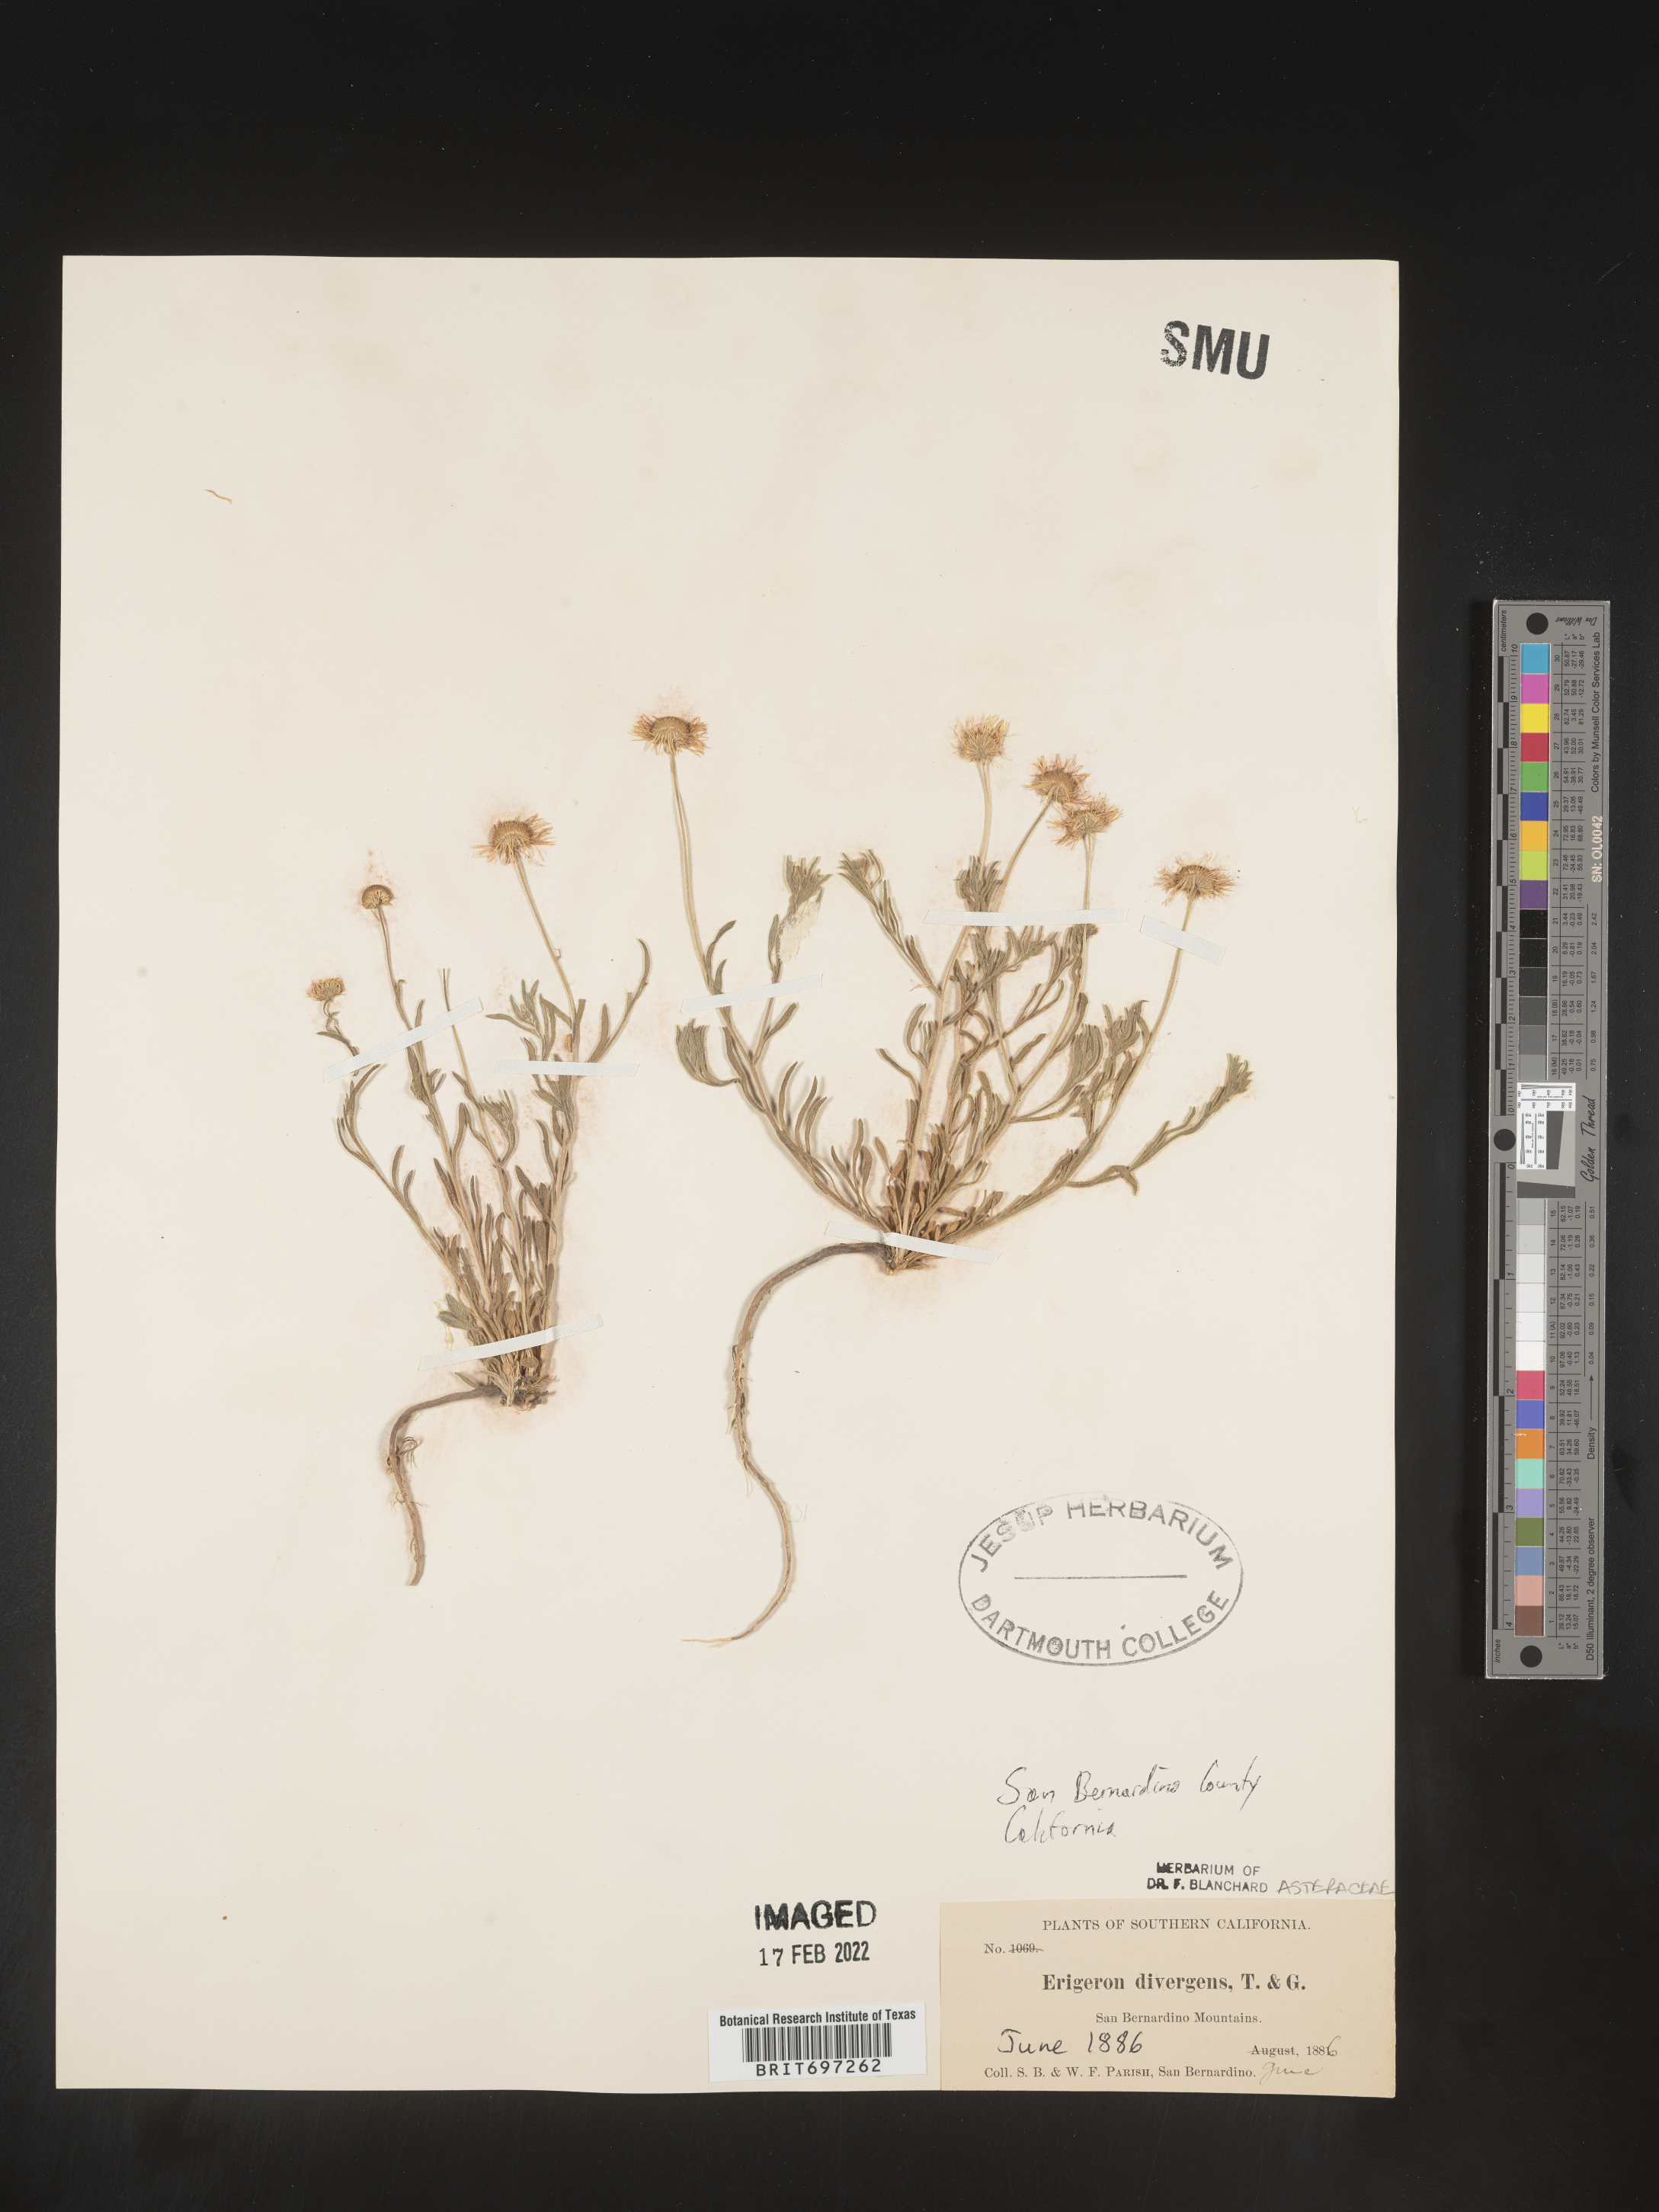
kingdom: Plantae
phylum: Tracheophyta
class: Magnoliopsida
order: Asterales
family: Asteraceae
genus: Erigeron
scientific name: Erigeron divergens
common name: Diffuse fleabane
